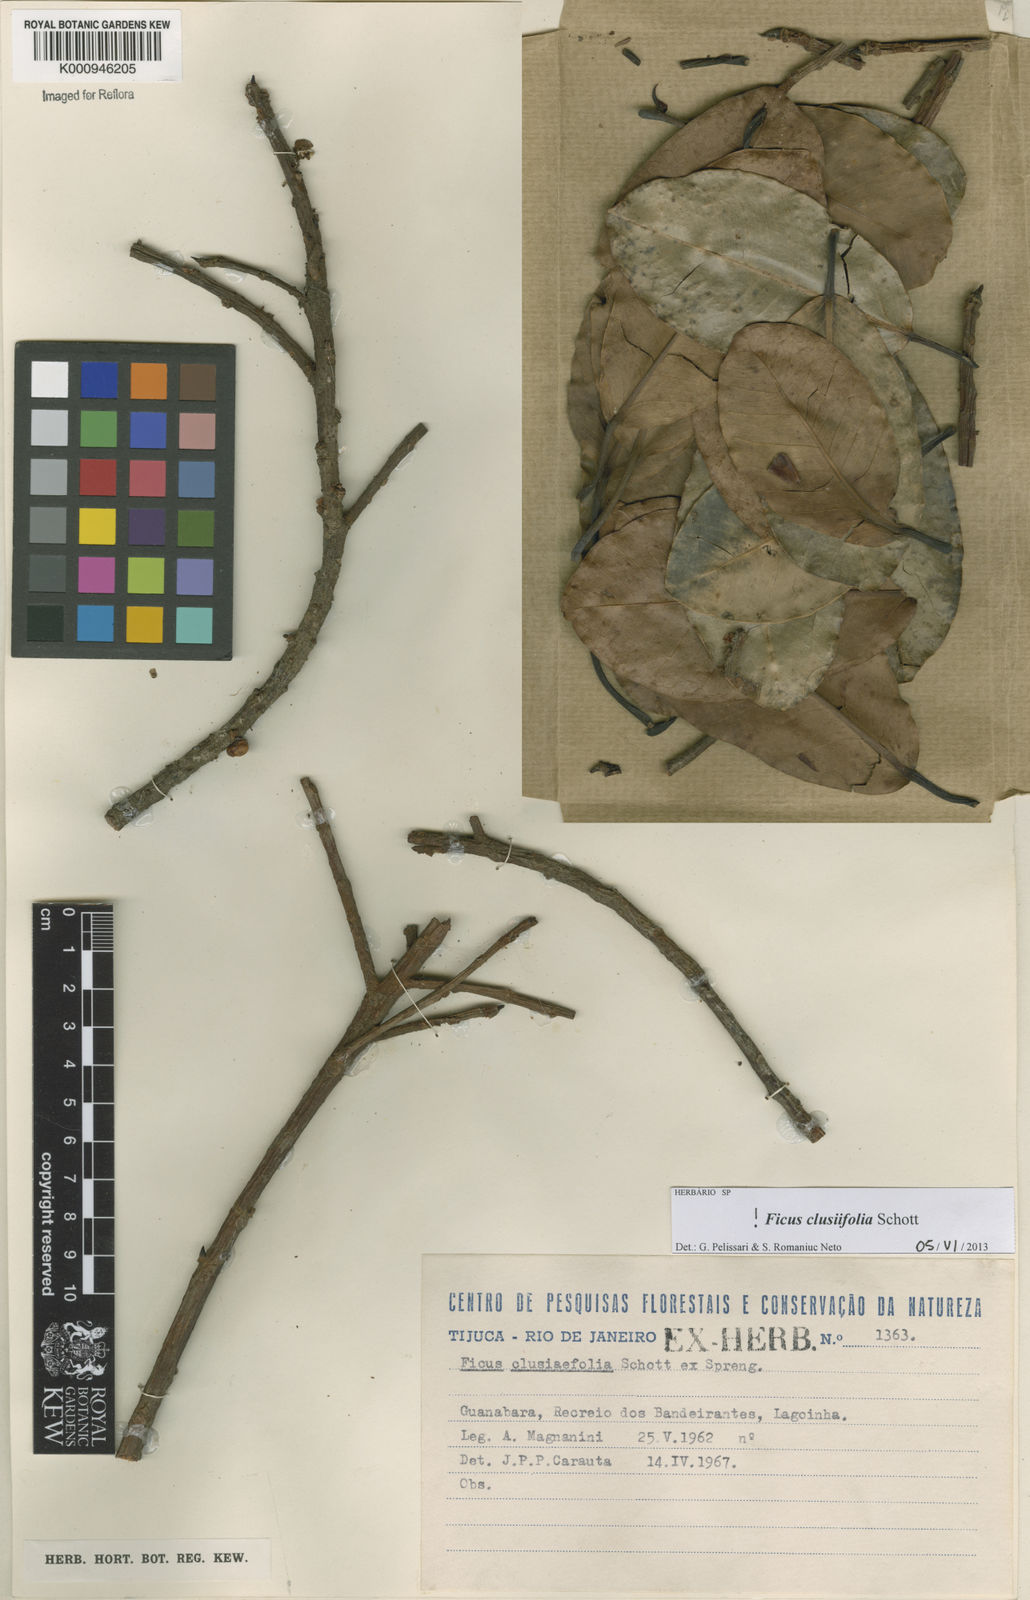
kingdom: Plantae
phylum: Tracheophyta
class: Magnoliopsida
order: Rosales
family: Moraceae
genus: Ficus
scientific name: Ficus americana
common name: Jamaican cherry fig
